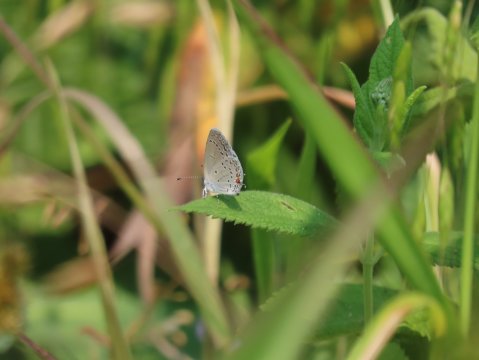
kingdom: Animalia
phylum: Arthropoda
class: Insecta
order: Lepidoptera
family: Lycaenidae
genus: Elkalyce
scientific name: Elkalyce comyntas
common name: Eastern Tailed-Blue
